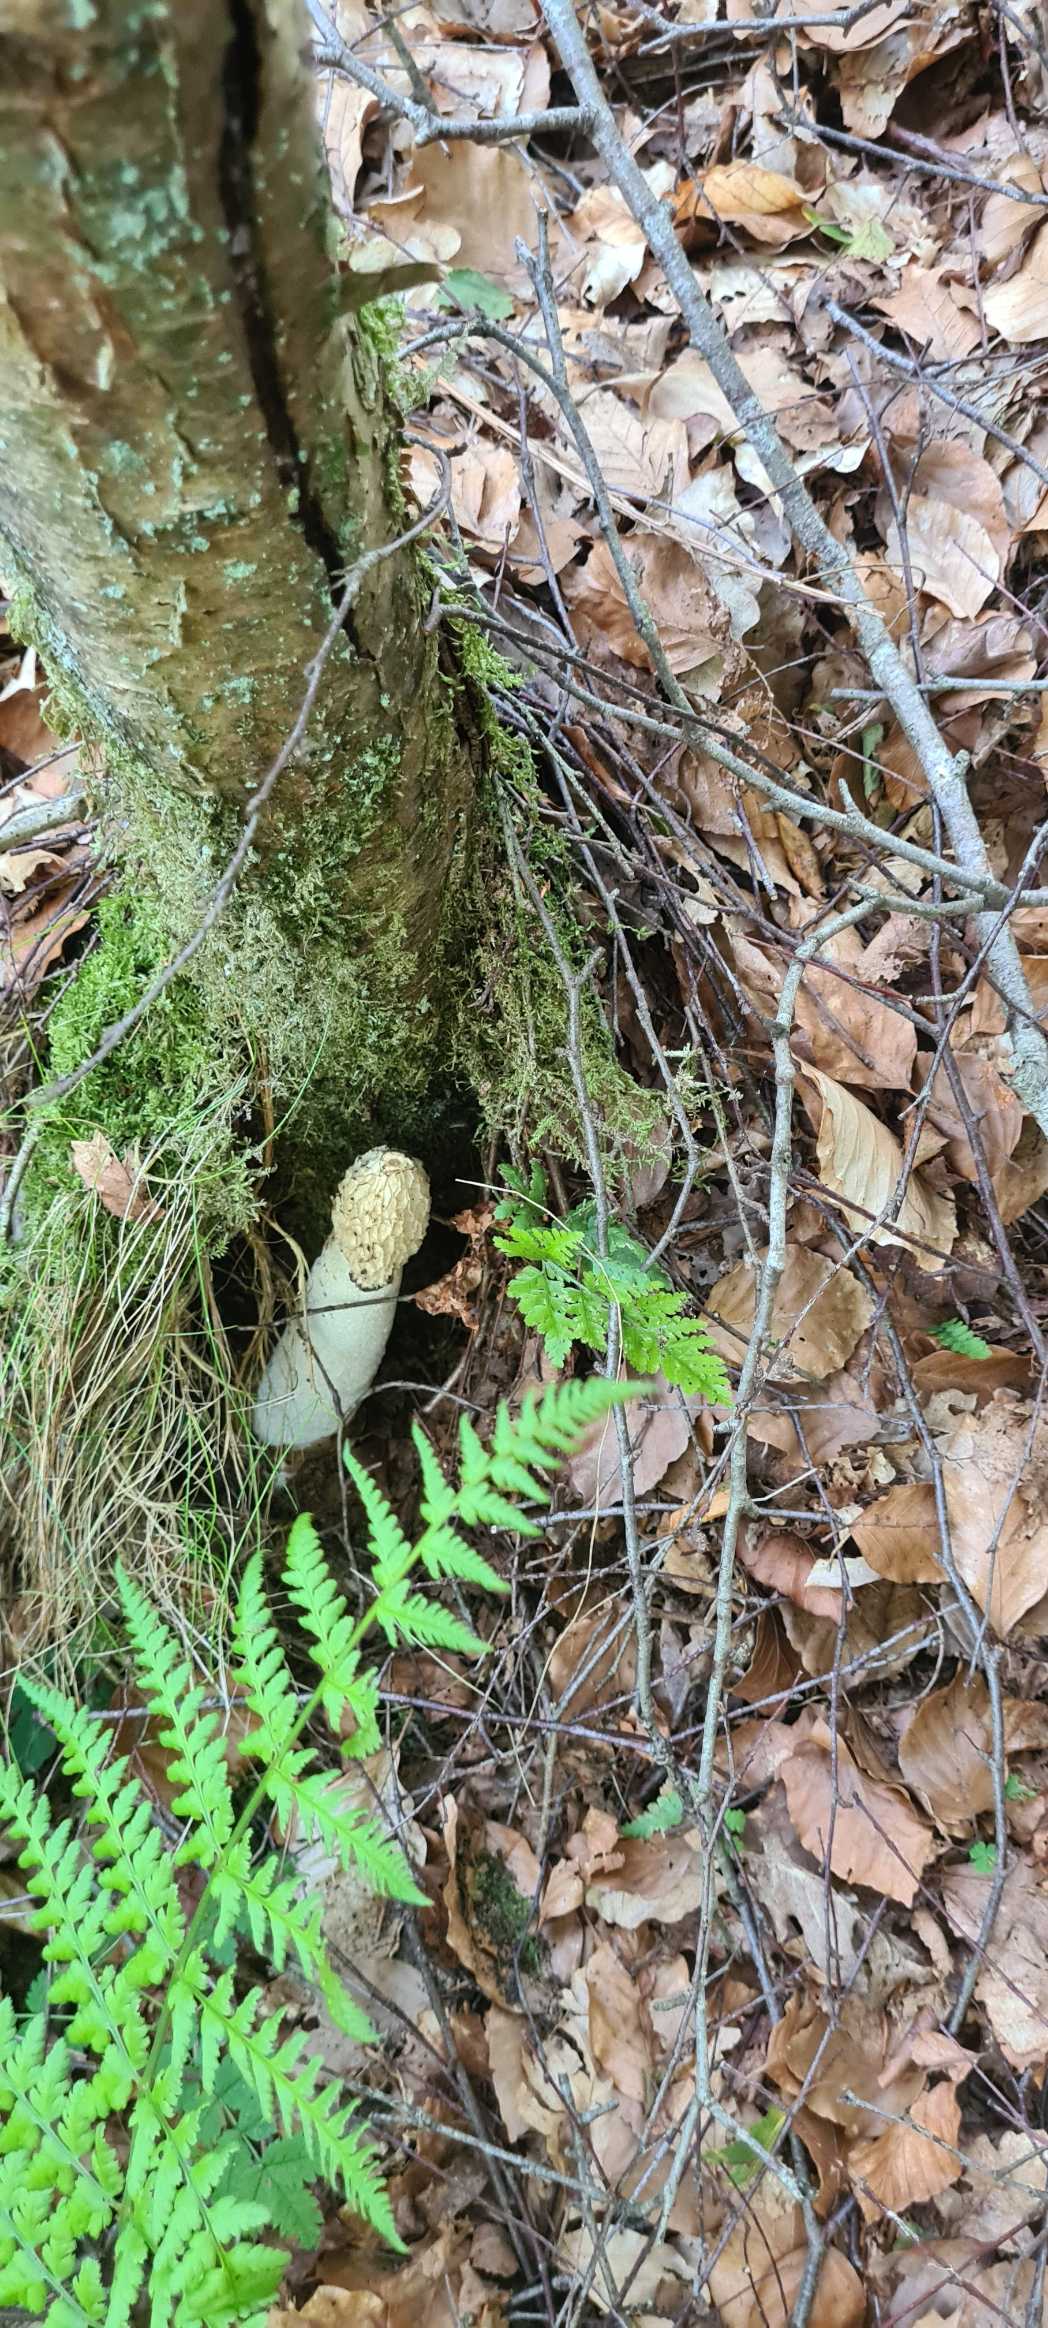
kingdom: Fungi
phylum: Basidiomycota
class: Agaricomycetes
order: Phallales
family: Phallaceae
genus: Phallus
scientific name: Phallus impudicus
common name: Almindelig stinksvamp
